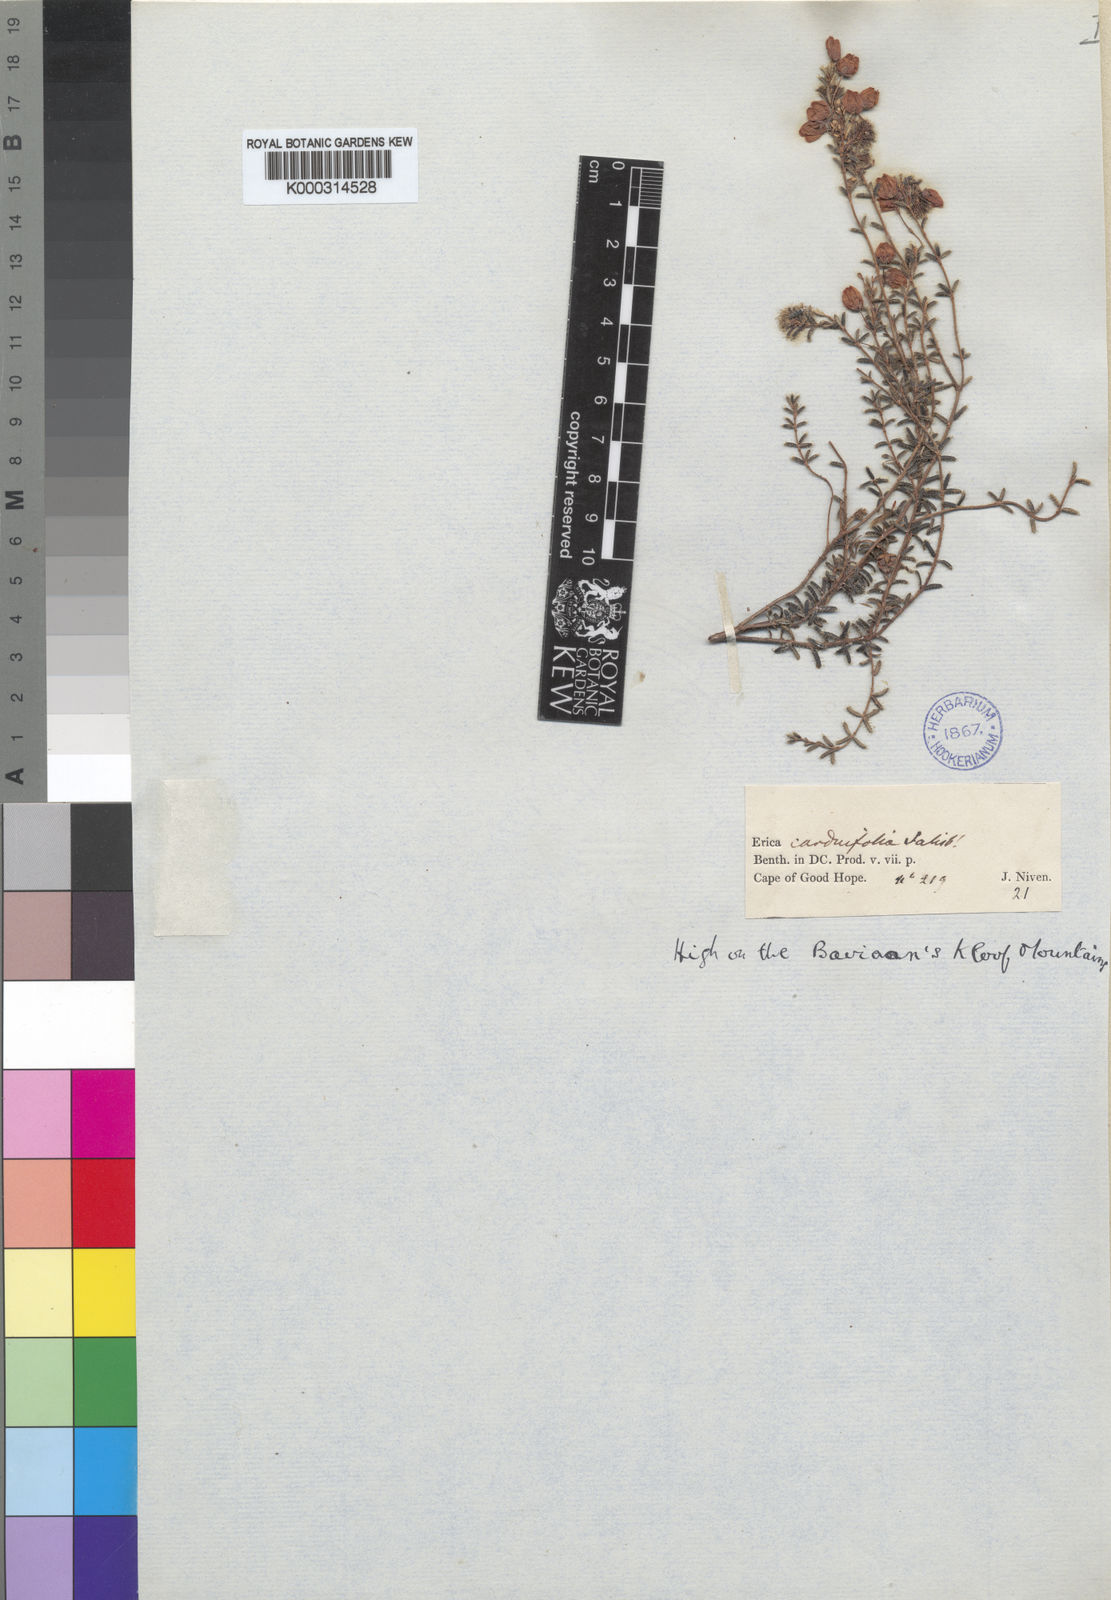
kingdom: Plantae
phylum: Tracheophyta
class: Magnoliopsida
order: Ericales
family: Ericaceae
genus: Erica
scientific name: Erica carduifolia
